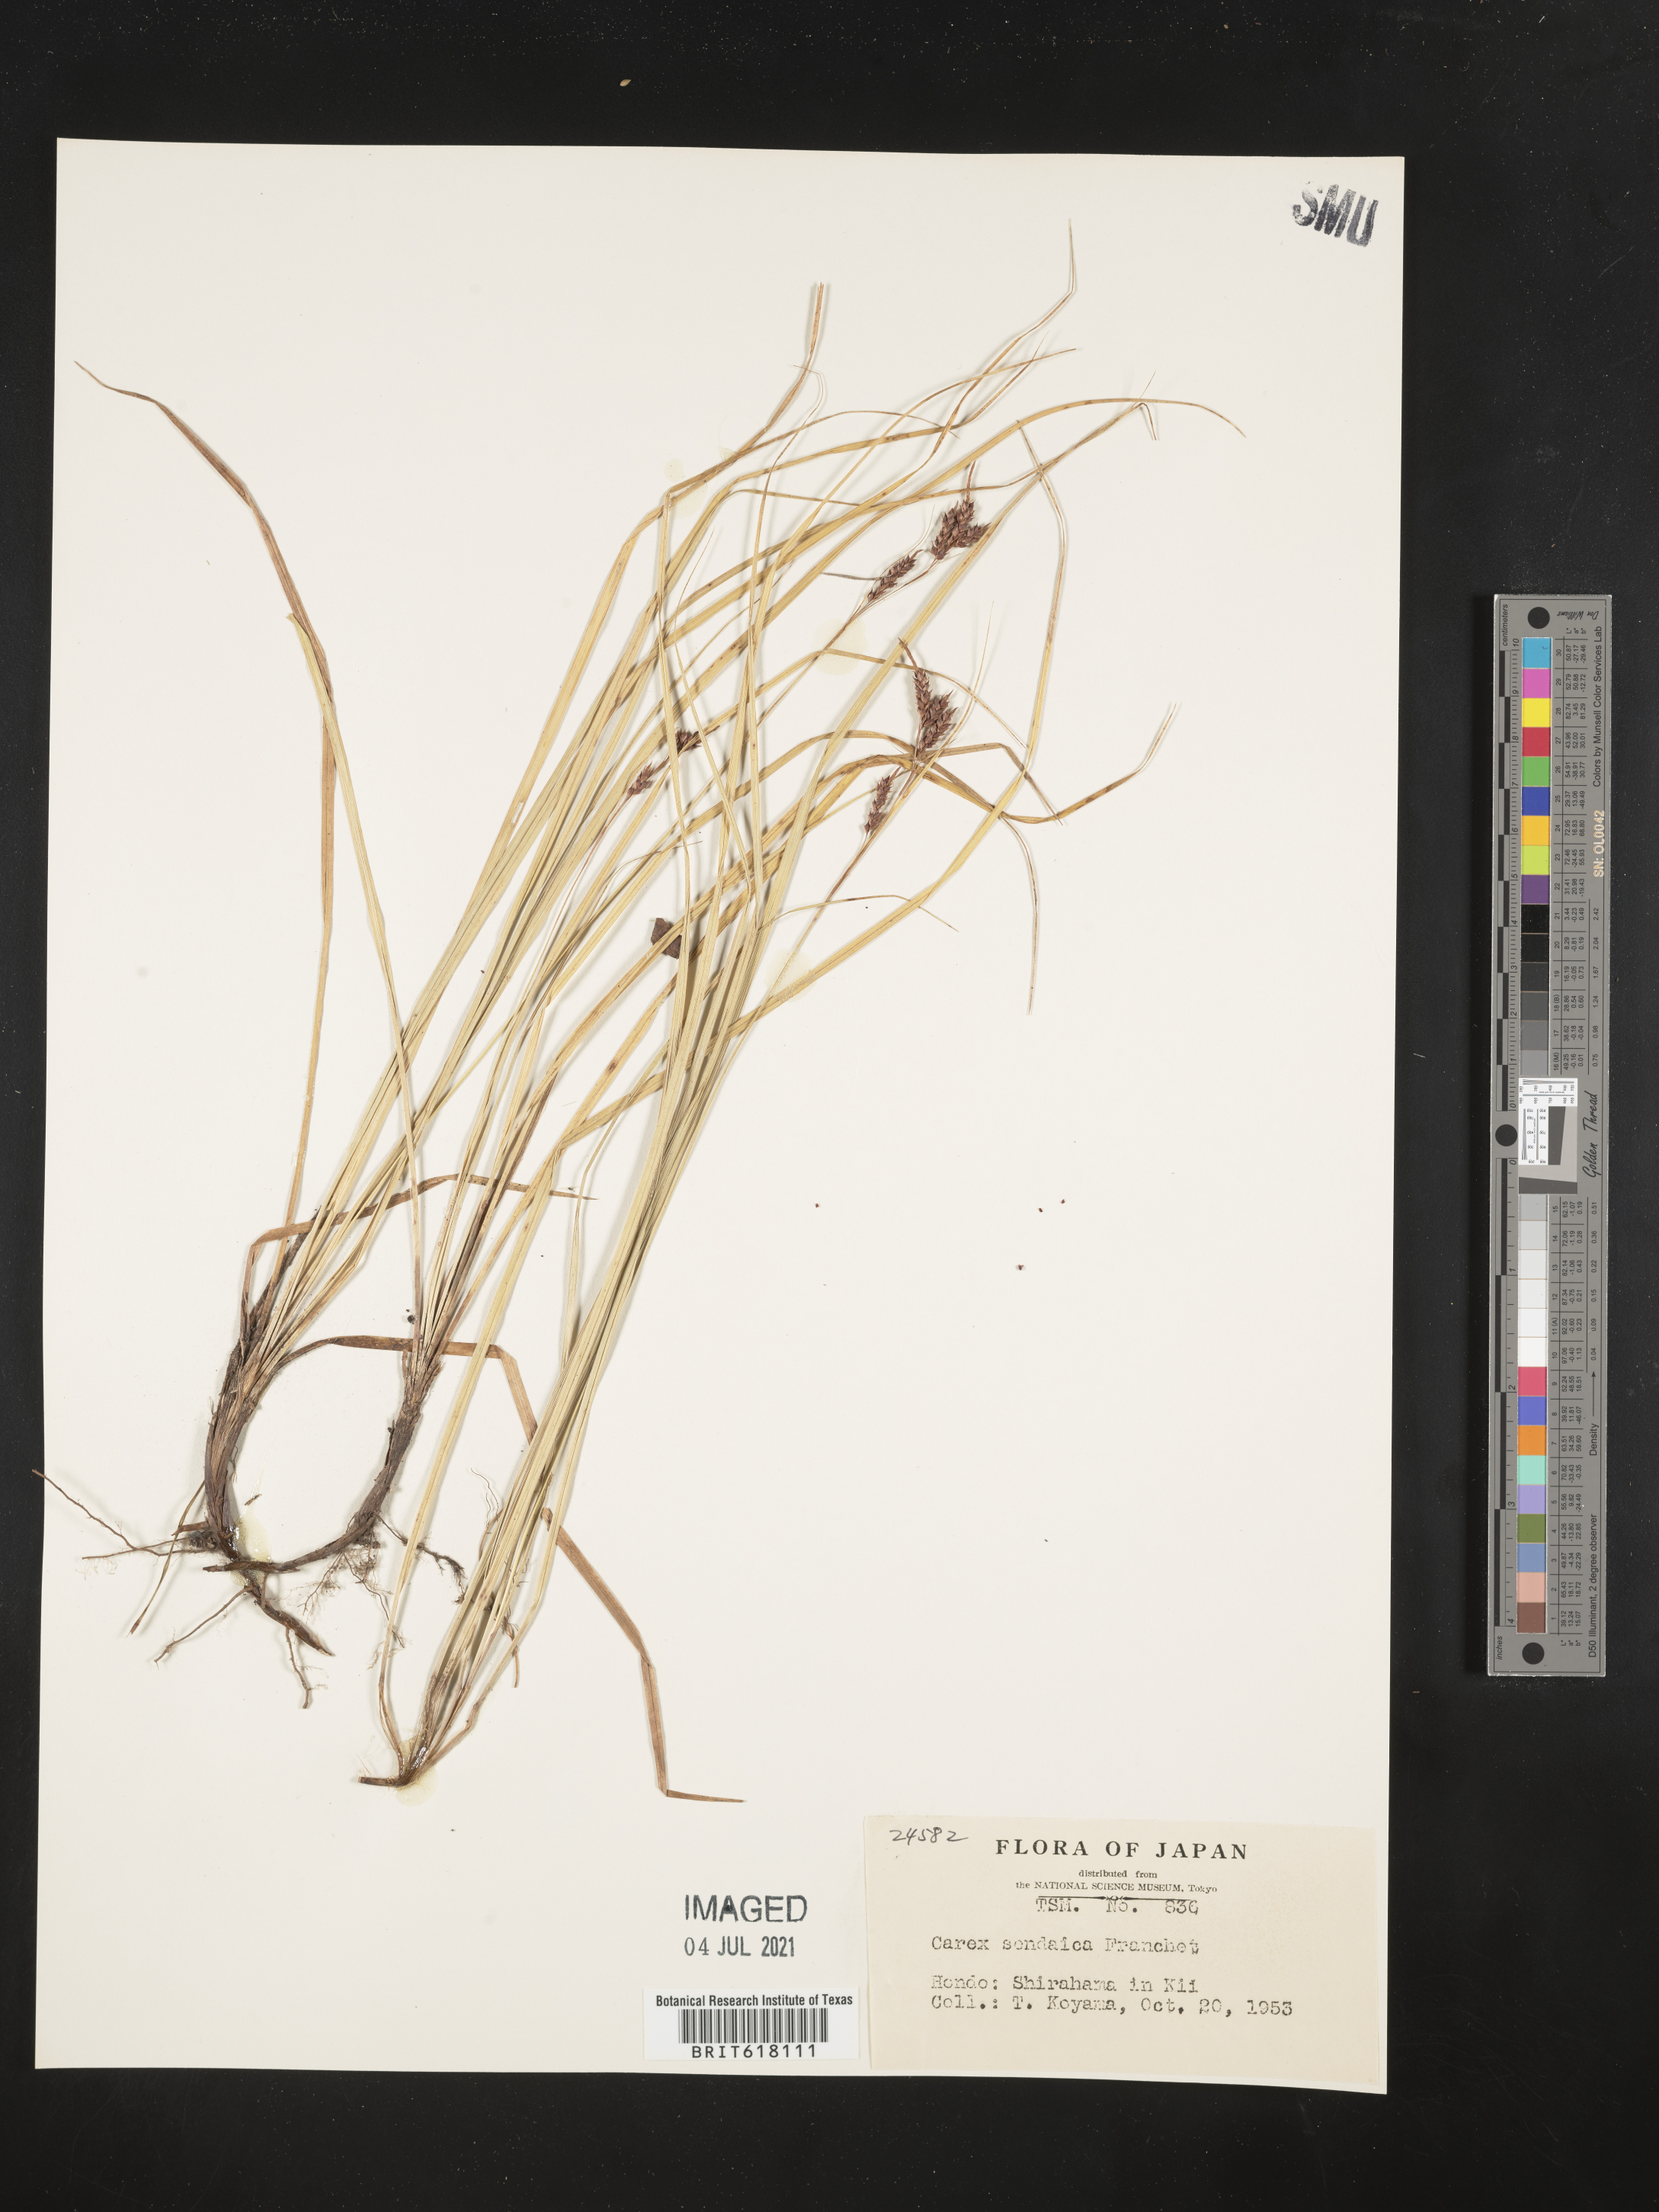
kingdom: Plantae
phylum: Tracheophyta
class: Liliopsida
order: Poales
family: Cyperaceae
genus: Carex
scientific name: Carex sendaica
